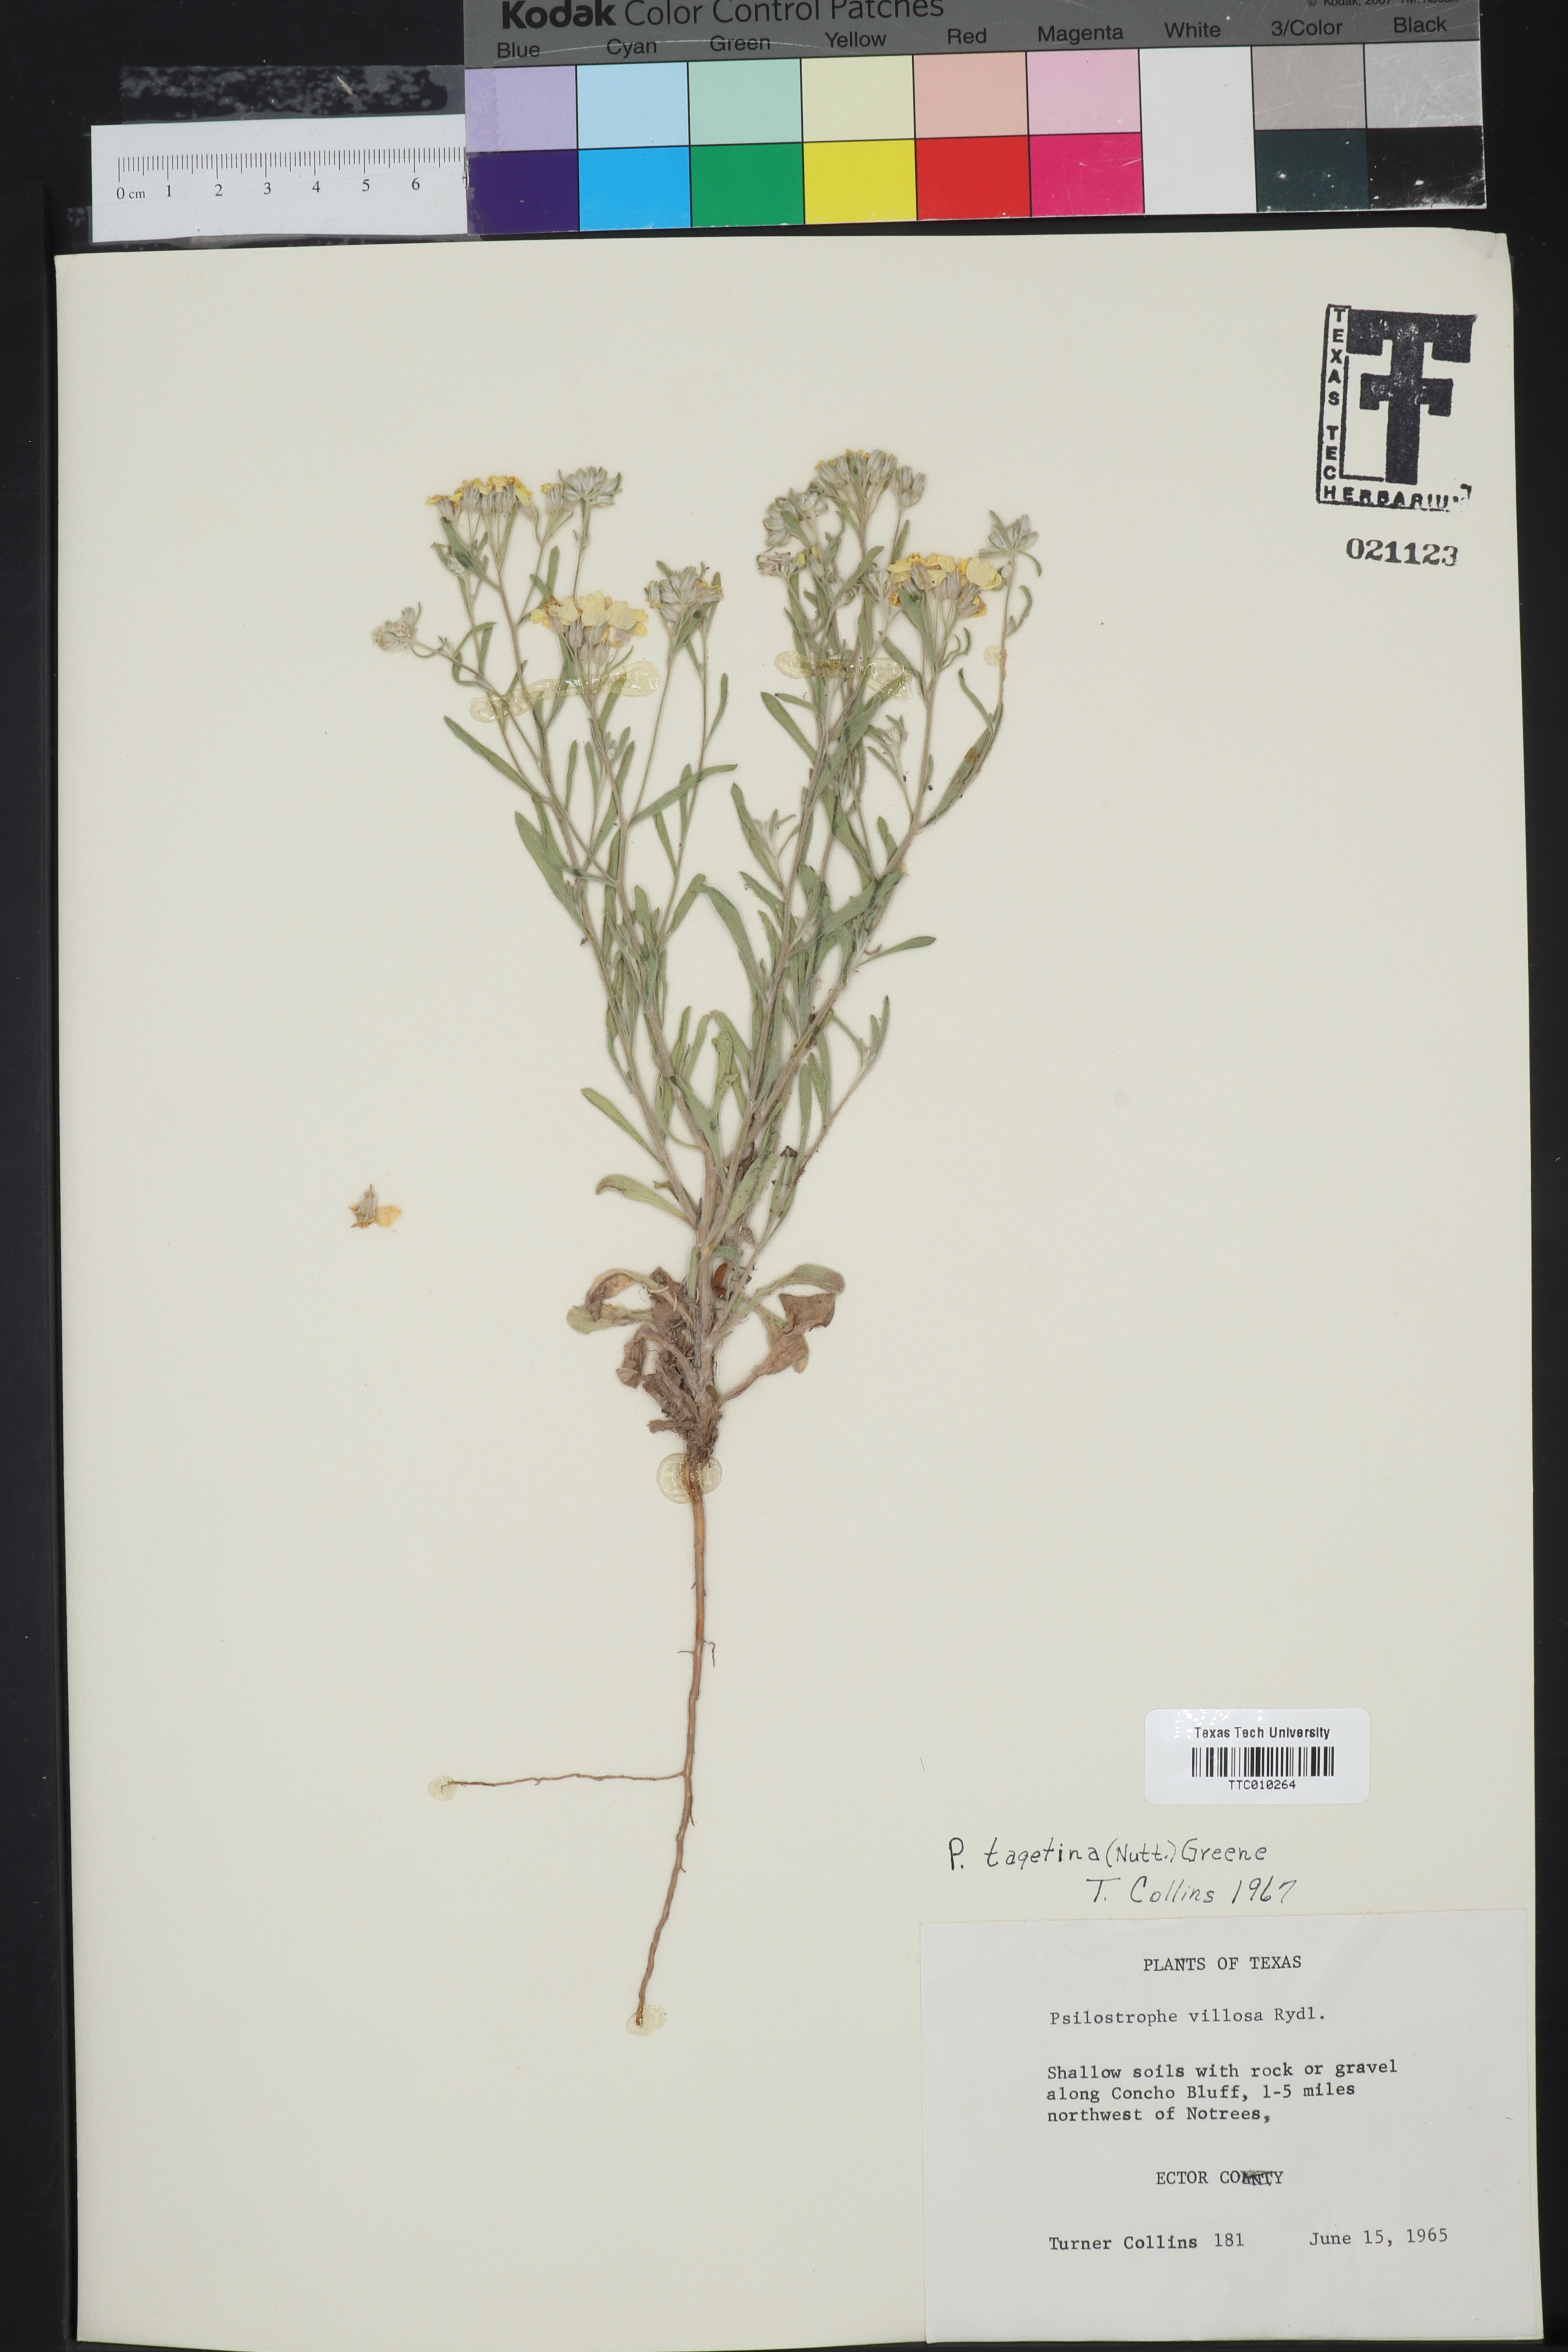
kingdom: Plantae
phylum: Tracheophyta
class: Magnoliopsida
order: Asterales
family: Asteraceae
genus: Psilostrophe
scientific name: Psilostrophe tagetina
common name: Marigold paper-flower
